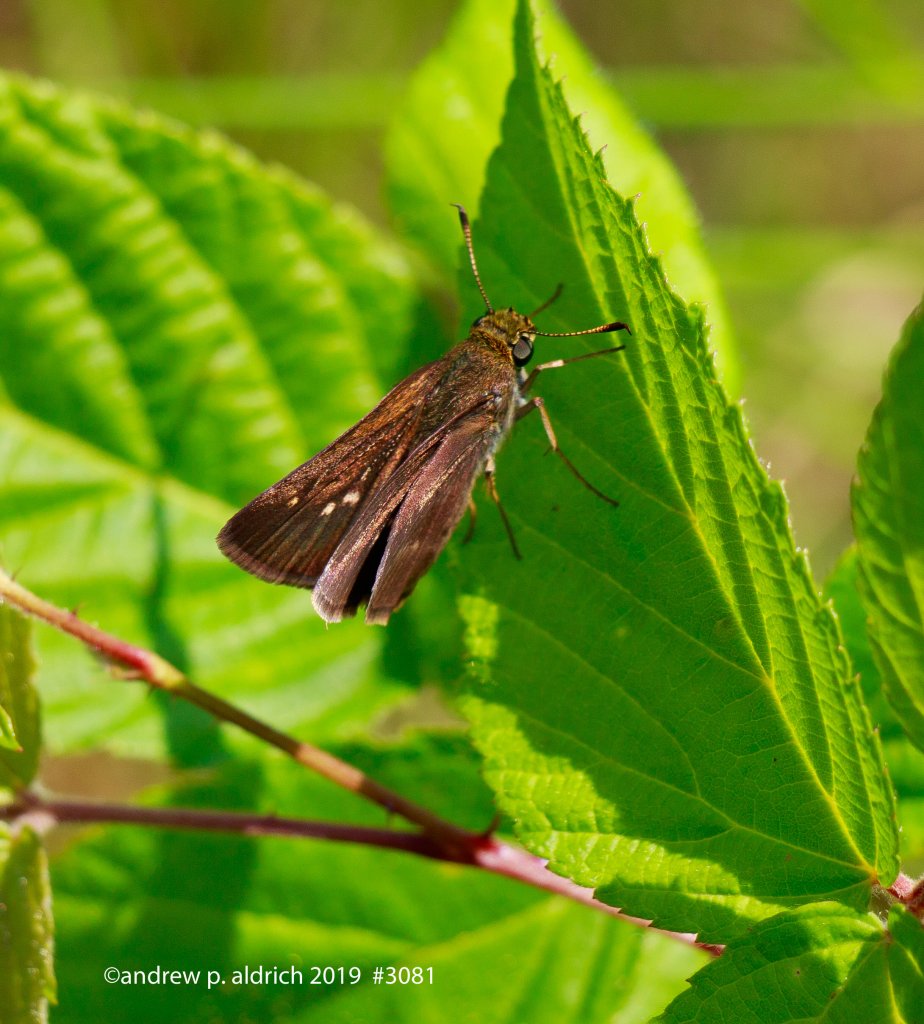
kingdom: Animalia
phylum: Arthropoda
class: Insecta
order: Lepidoptera
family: Hesperiidae
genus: Euphyes
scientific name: Euphyes vestris
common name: Dun Skipper
